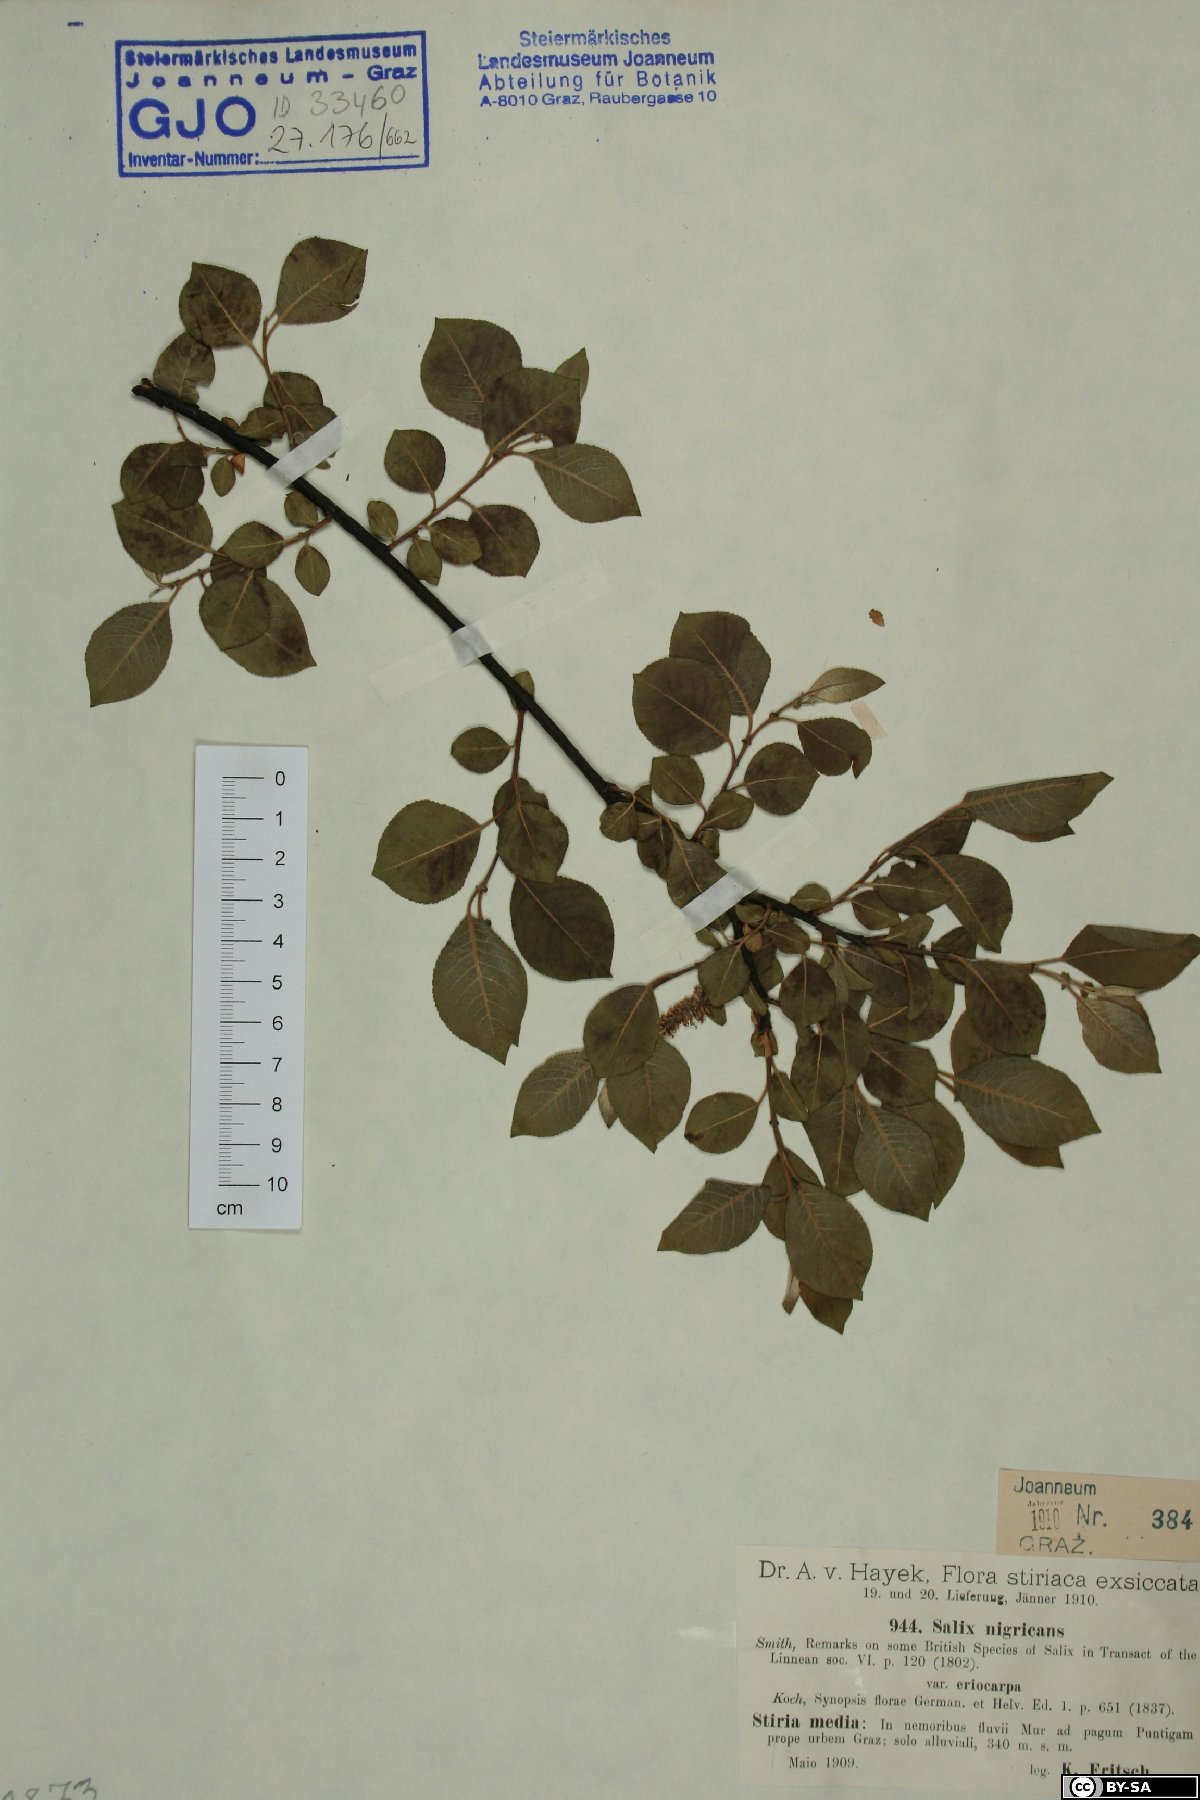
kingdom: Plantae
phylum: Tracheophyta
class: Magnoliopsida
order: Malpighiales
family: Salicaceae
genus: Salix
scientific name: Salix myrsinifolia
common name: Dark-leaved willow
